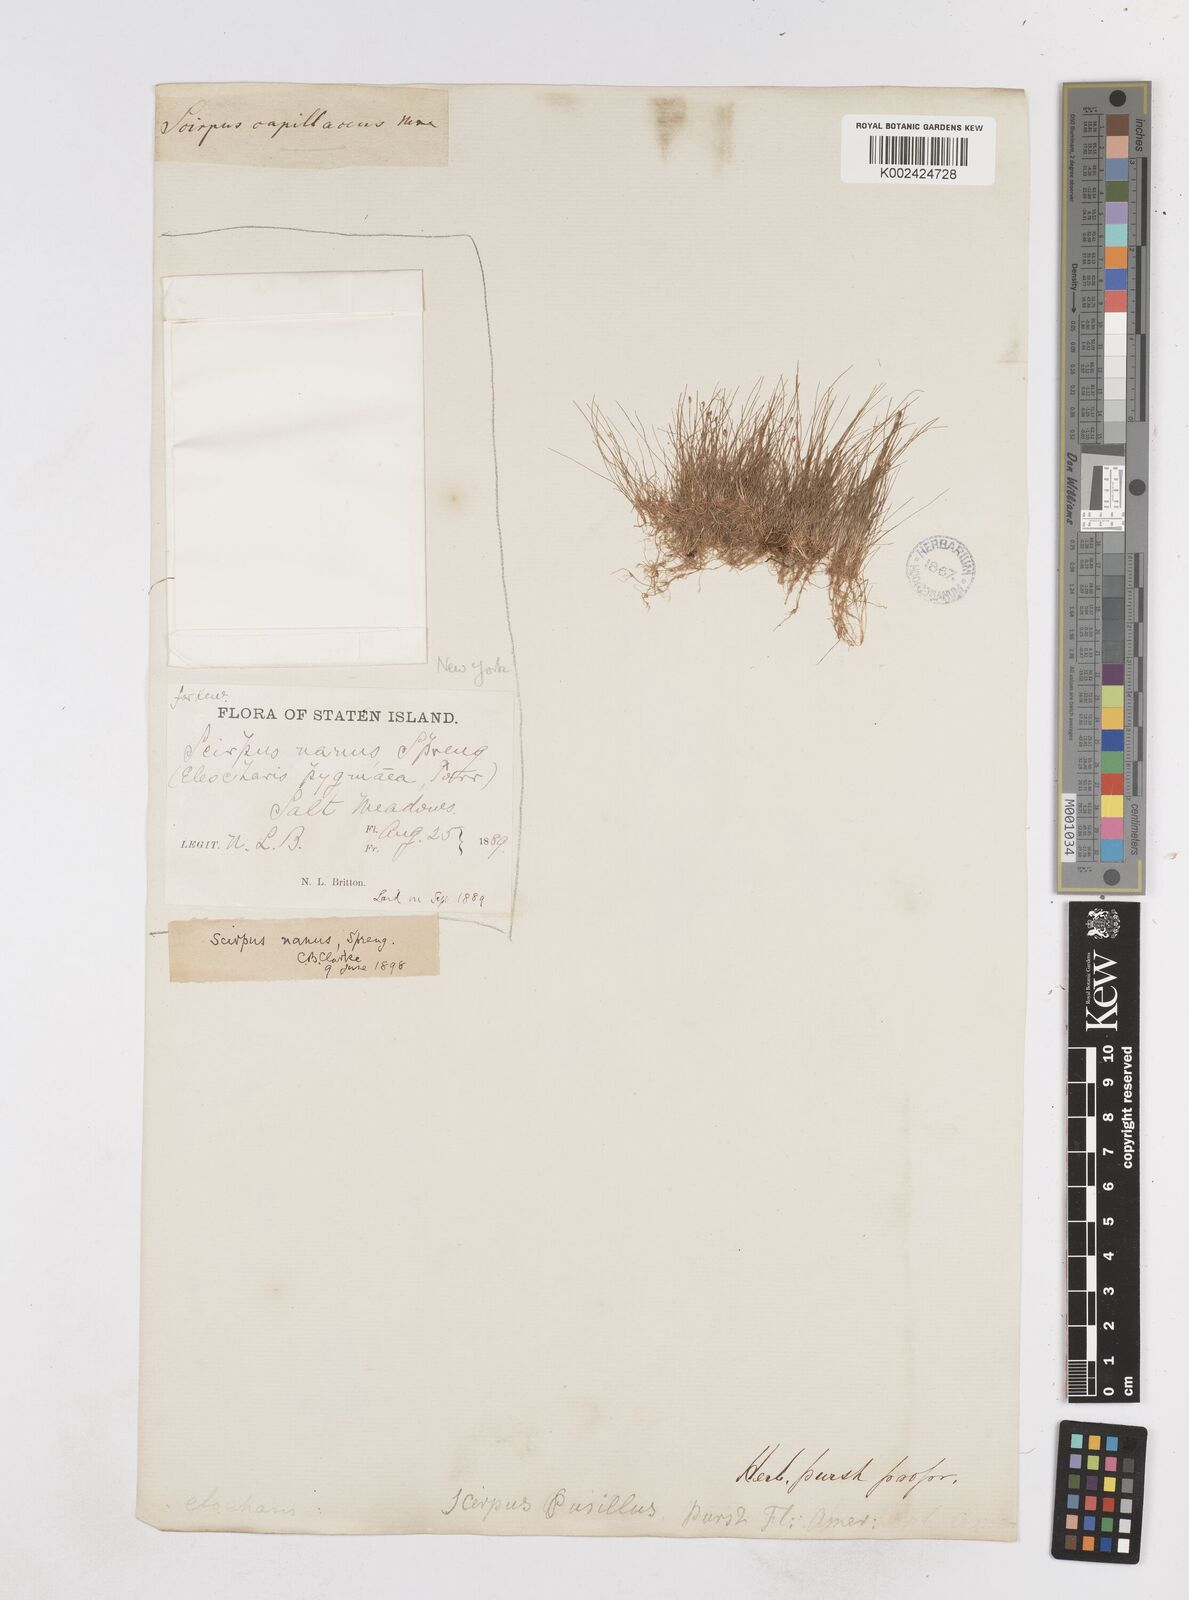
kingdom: Plantae
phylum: Tracheophyta
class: Liliopsida
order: Poales
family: Cyperaceae
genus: Eleocharis
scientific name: Eleocharis parvula
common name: Dwarf spike-rush
